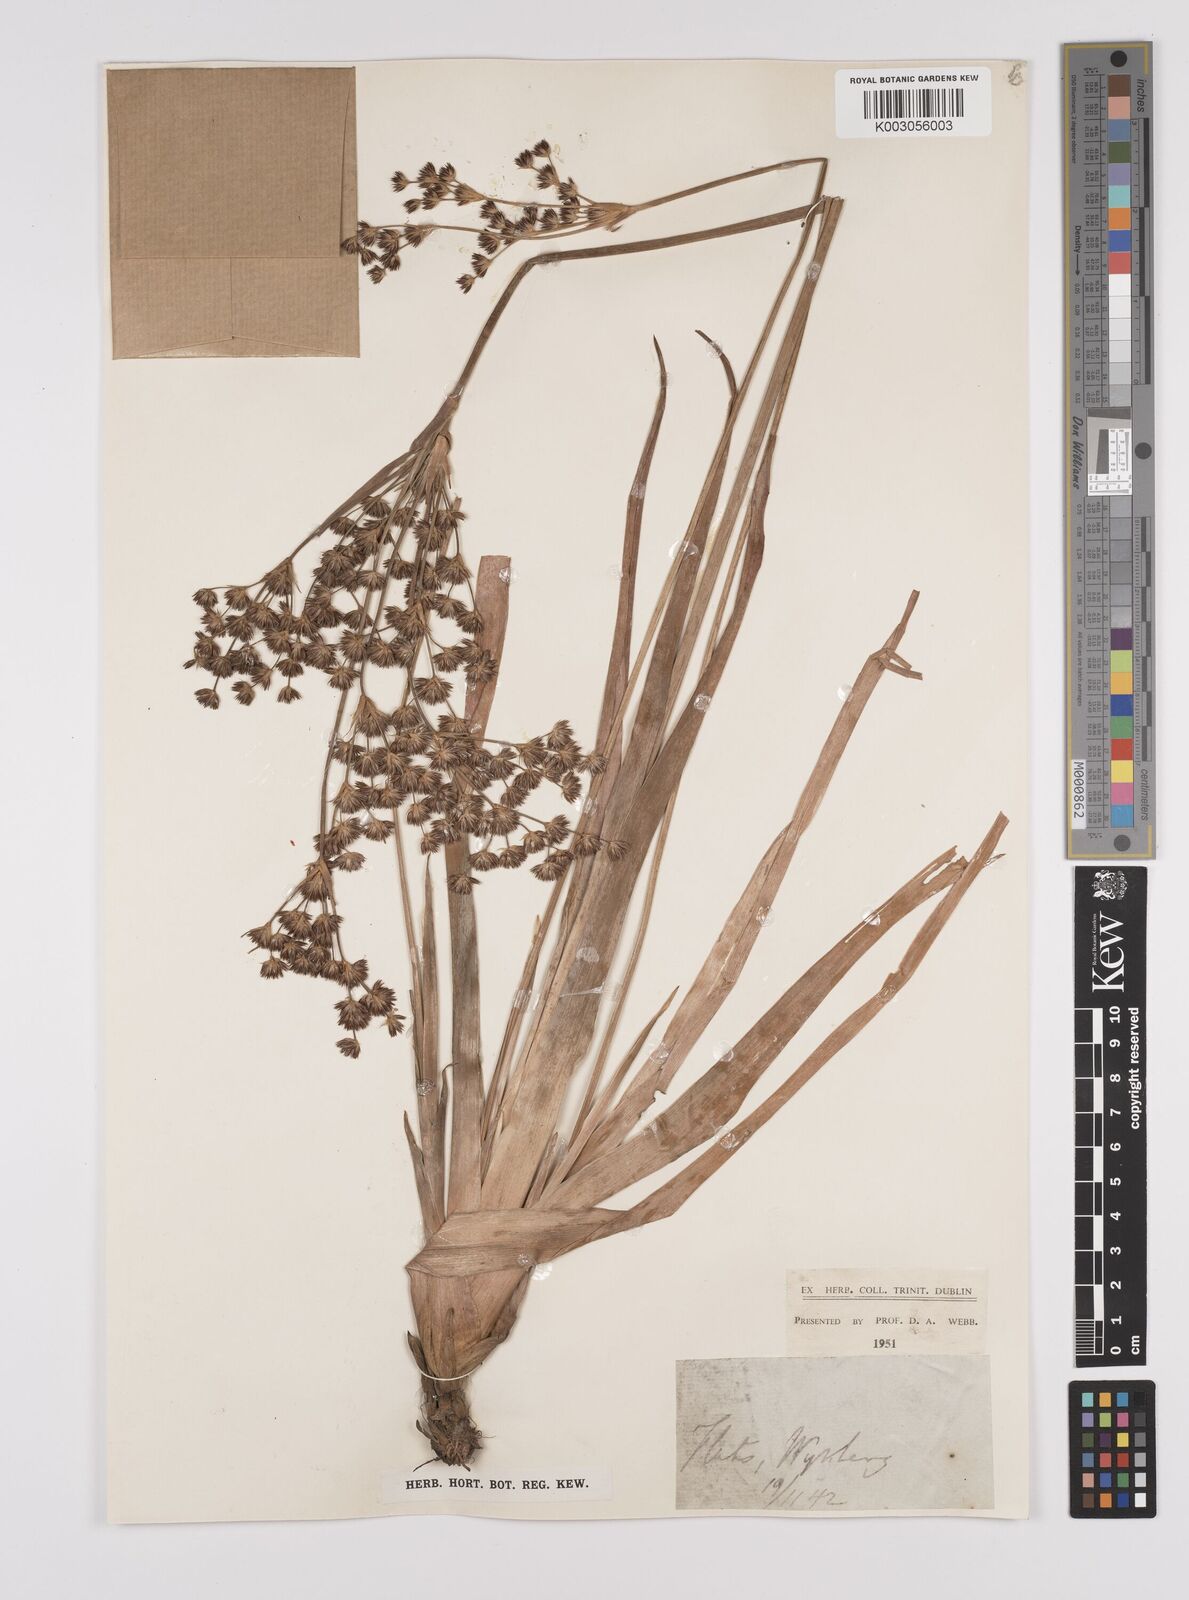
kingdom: Plantae
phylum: Tracheophyta
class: Liliopsida
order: Poales
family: Juncaceae
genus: Juncus
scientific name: Juncus lomatophyllus
